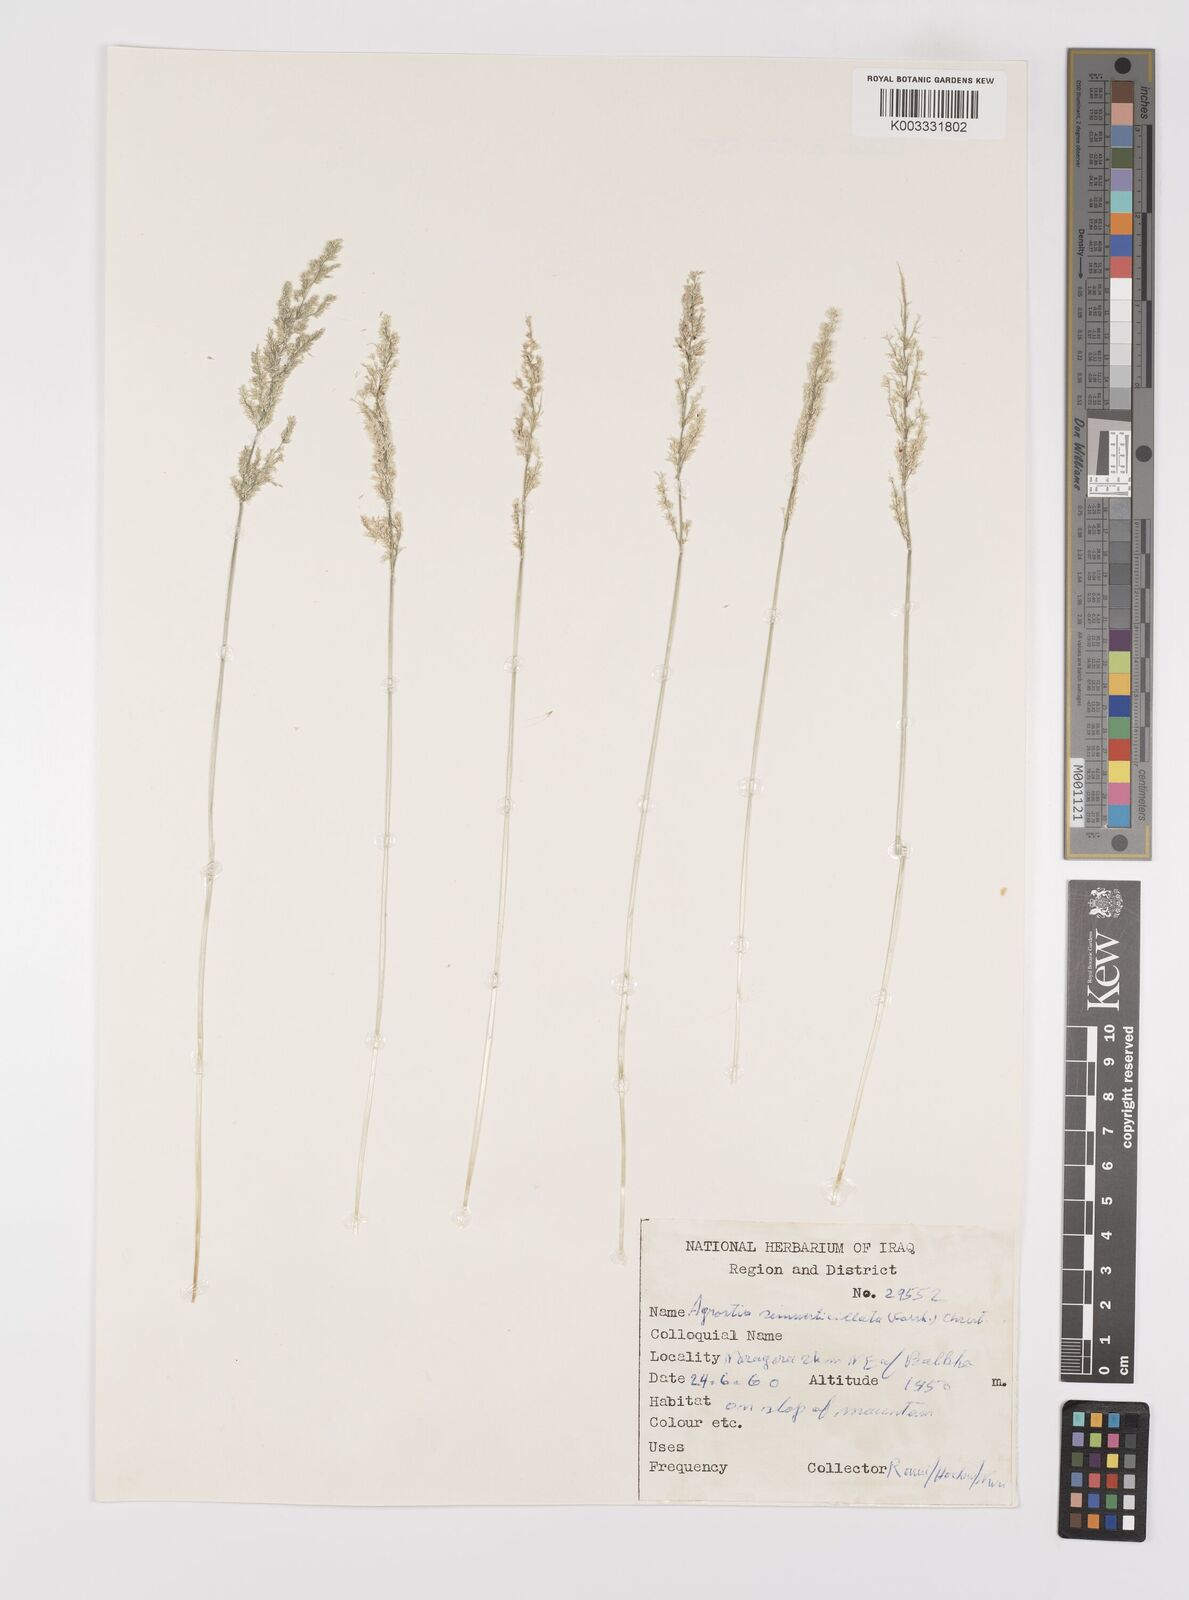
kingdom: Plantae
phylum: Tracheophyta
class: Liliopsida
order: Poales
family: Poaceae
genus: Polypogon
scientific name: Polypogon viridis
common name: Water bent
